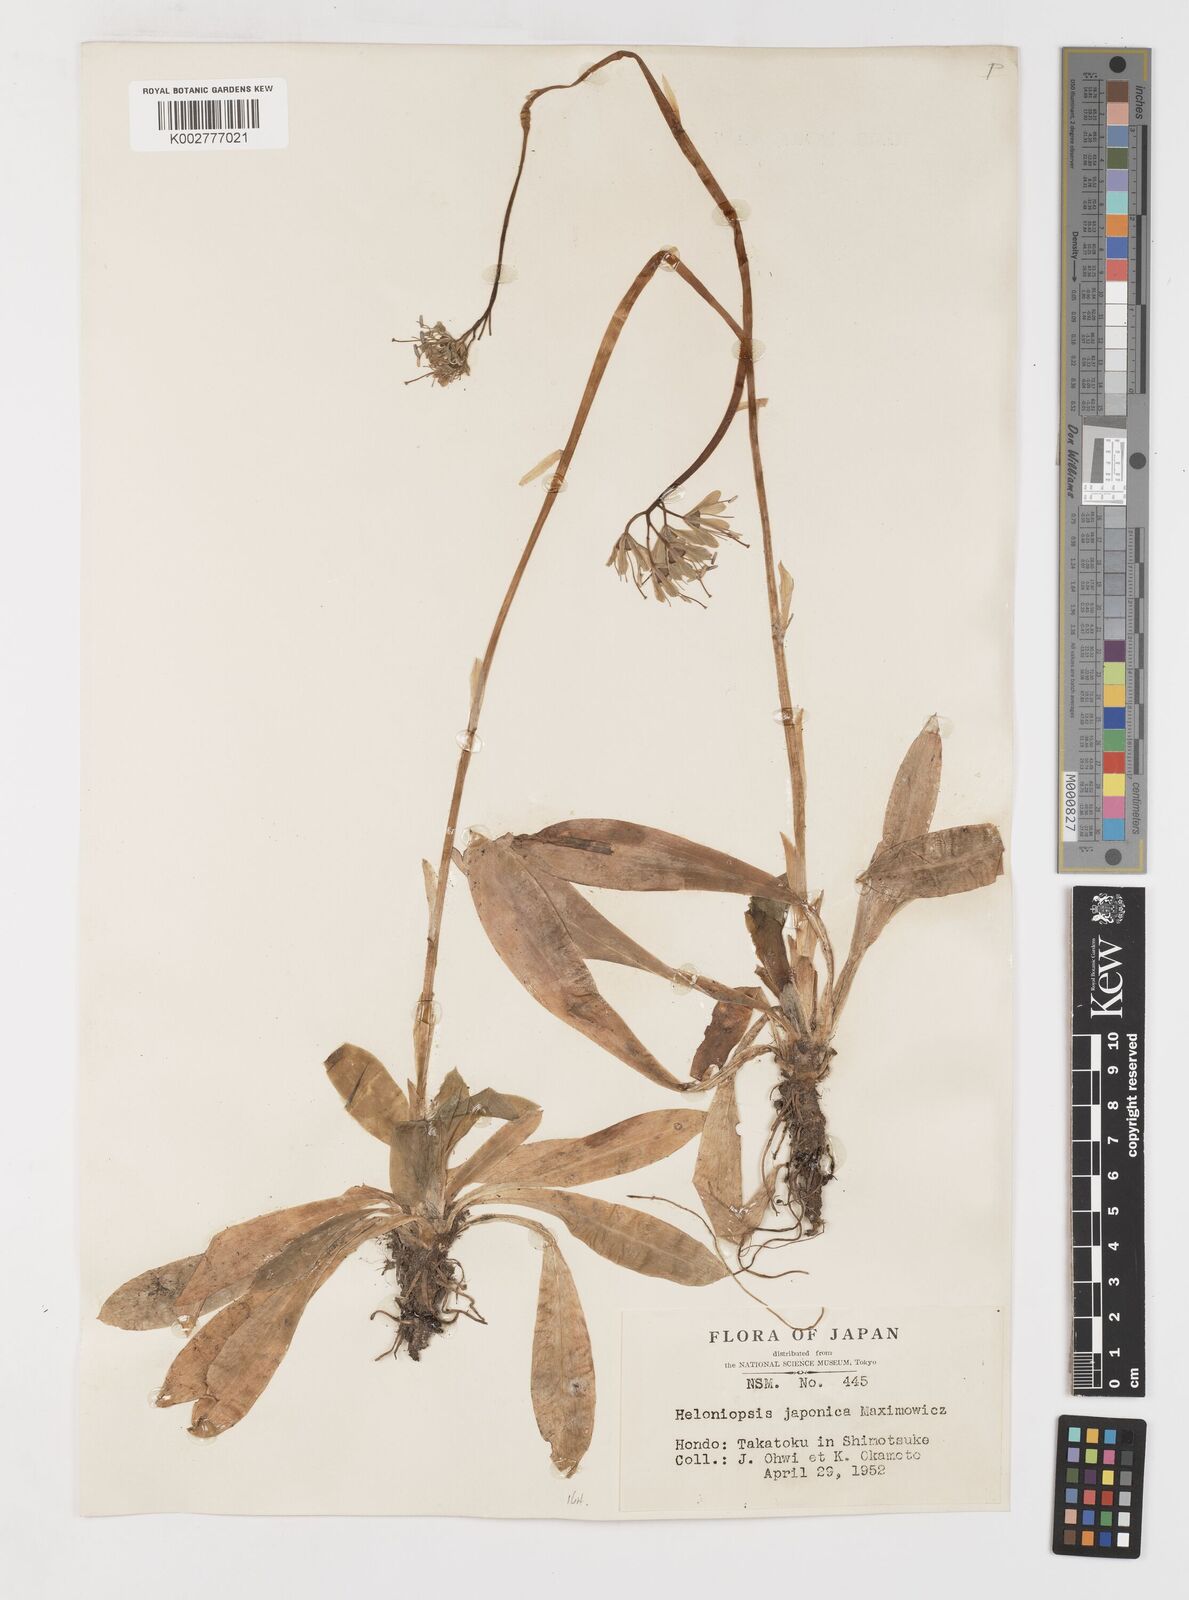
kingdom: Plantae
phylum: Tracheophyta
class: Liliopsida
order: Liliales
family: Melanthiaceae
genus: Helonias
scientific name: Helonias orientalis
